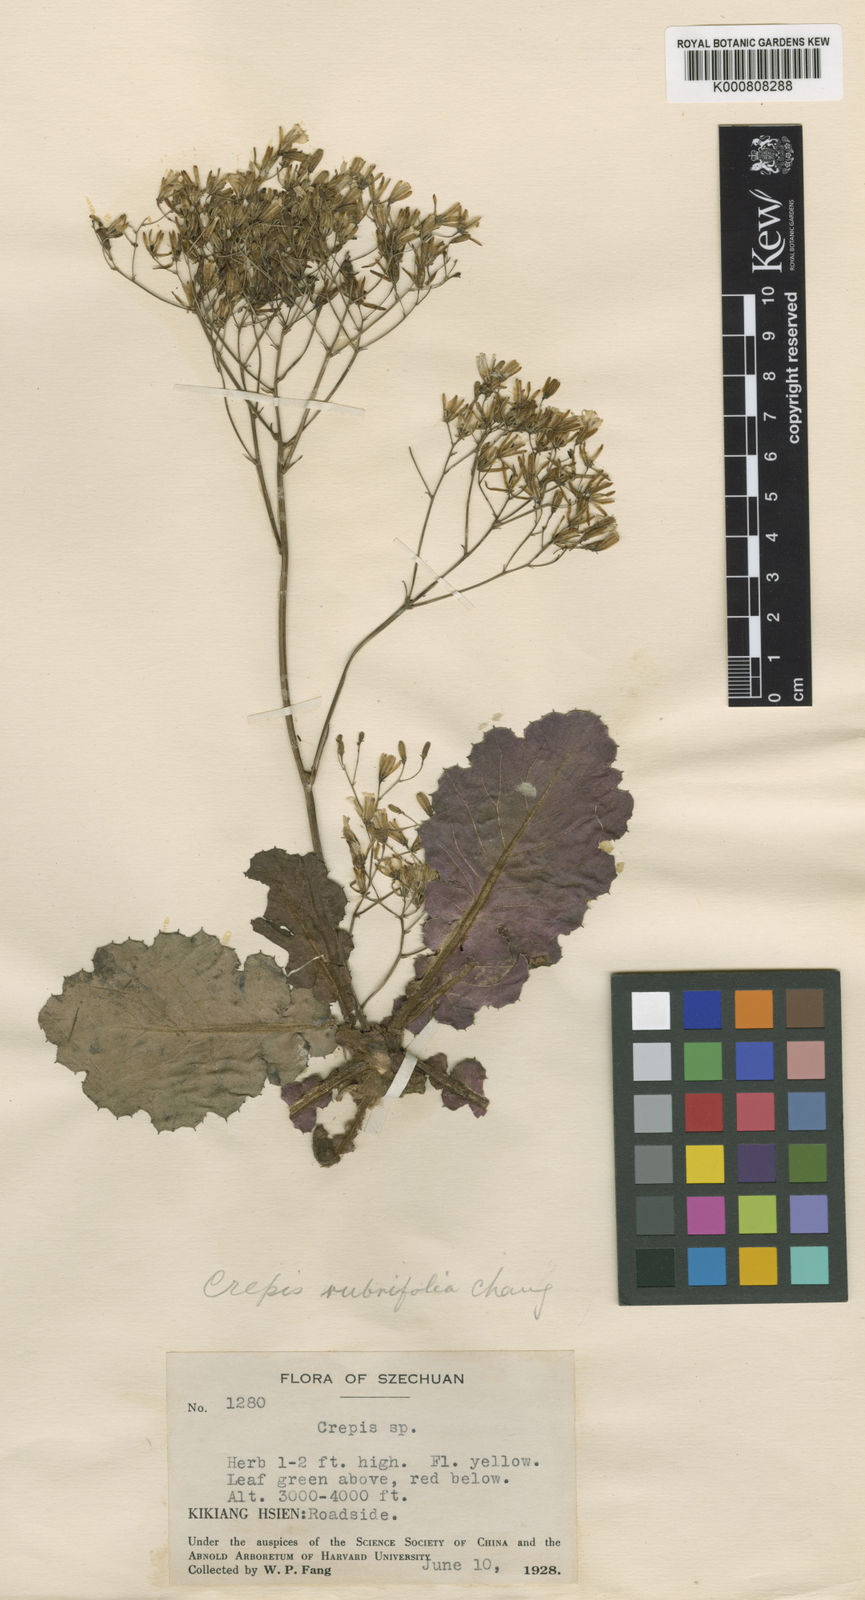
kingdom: Plantae
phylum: Tracheophyta
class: Magnoliopsida
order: Asterales
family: Asteraceae
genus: Youngia
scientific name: Youngia szechuanica
